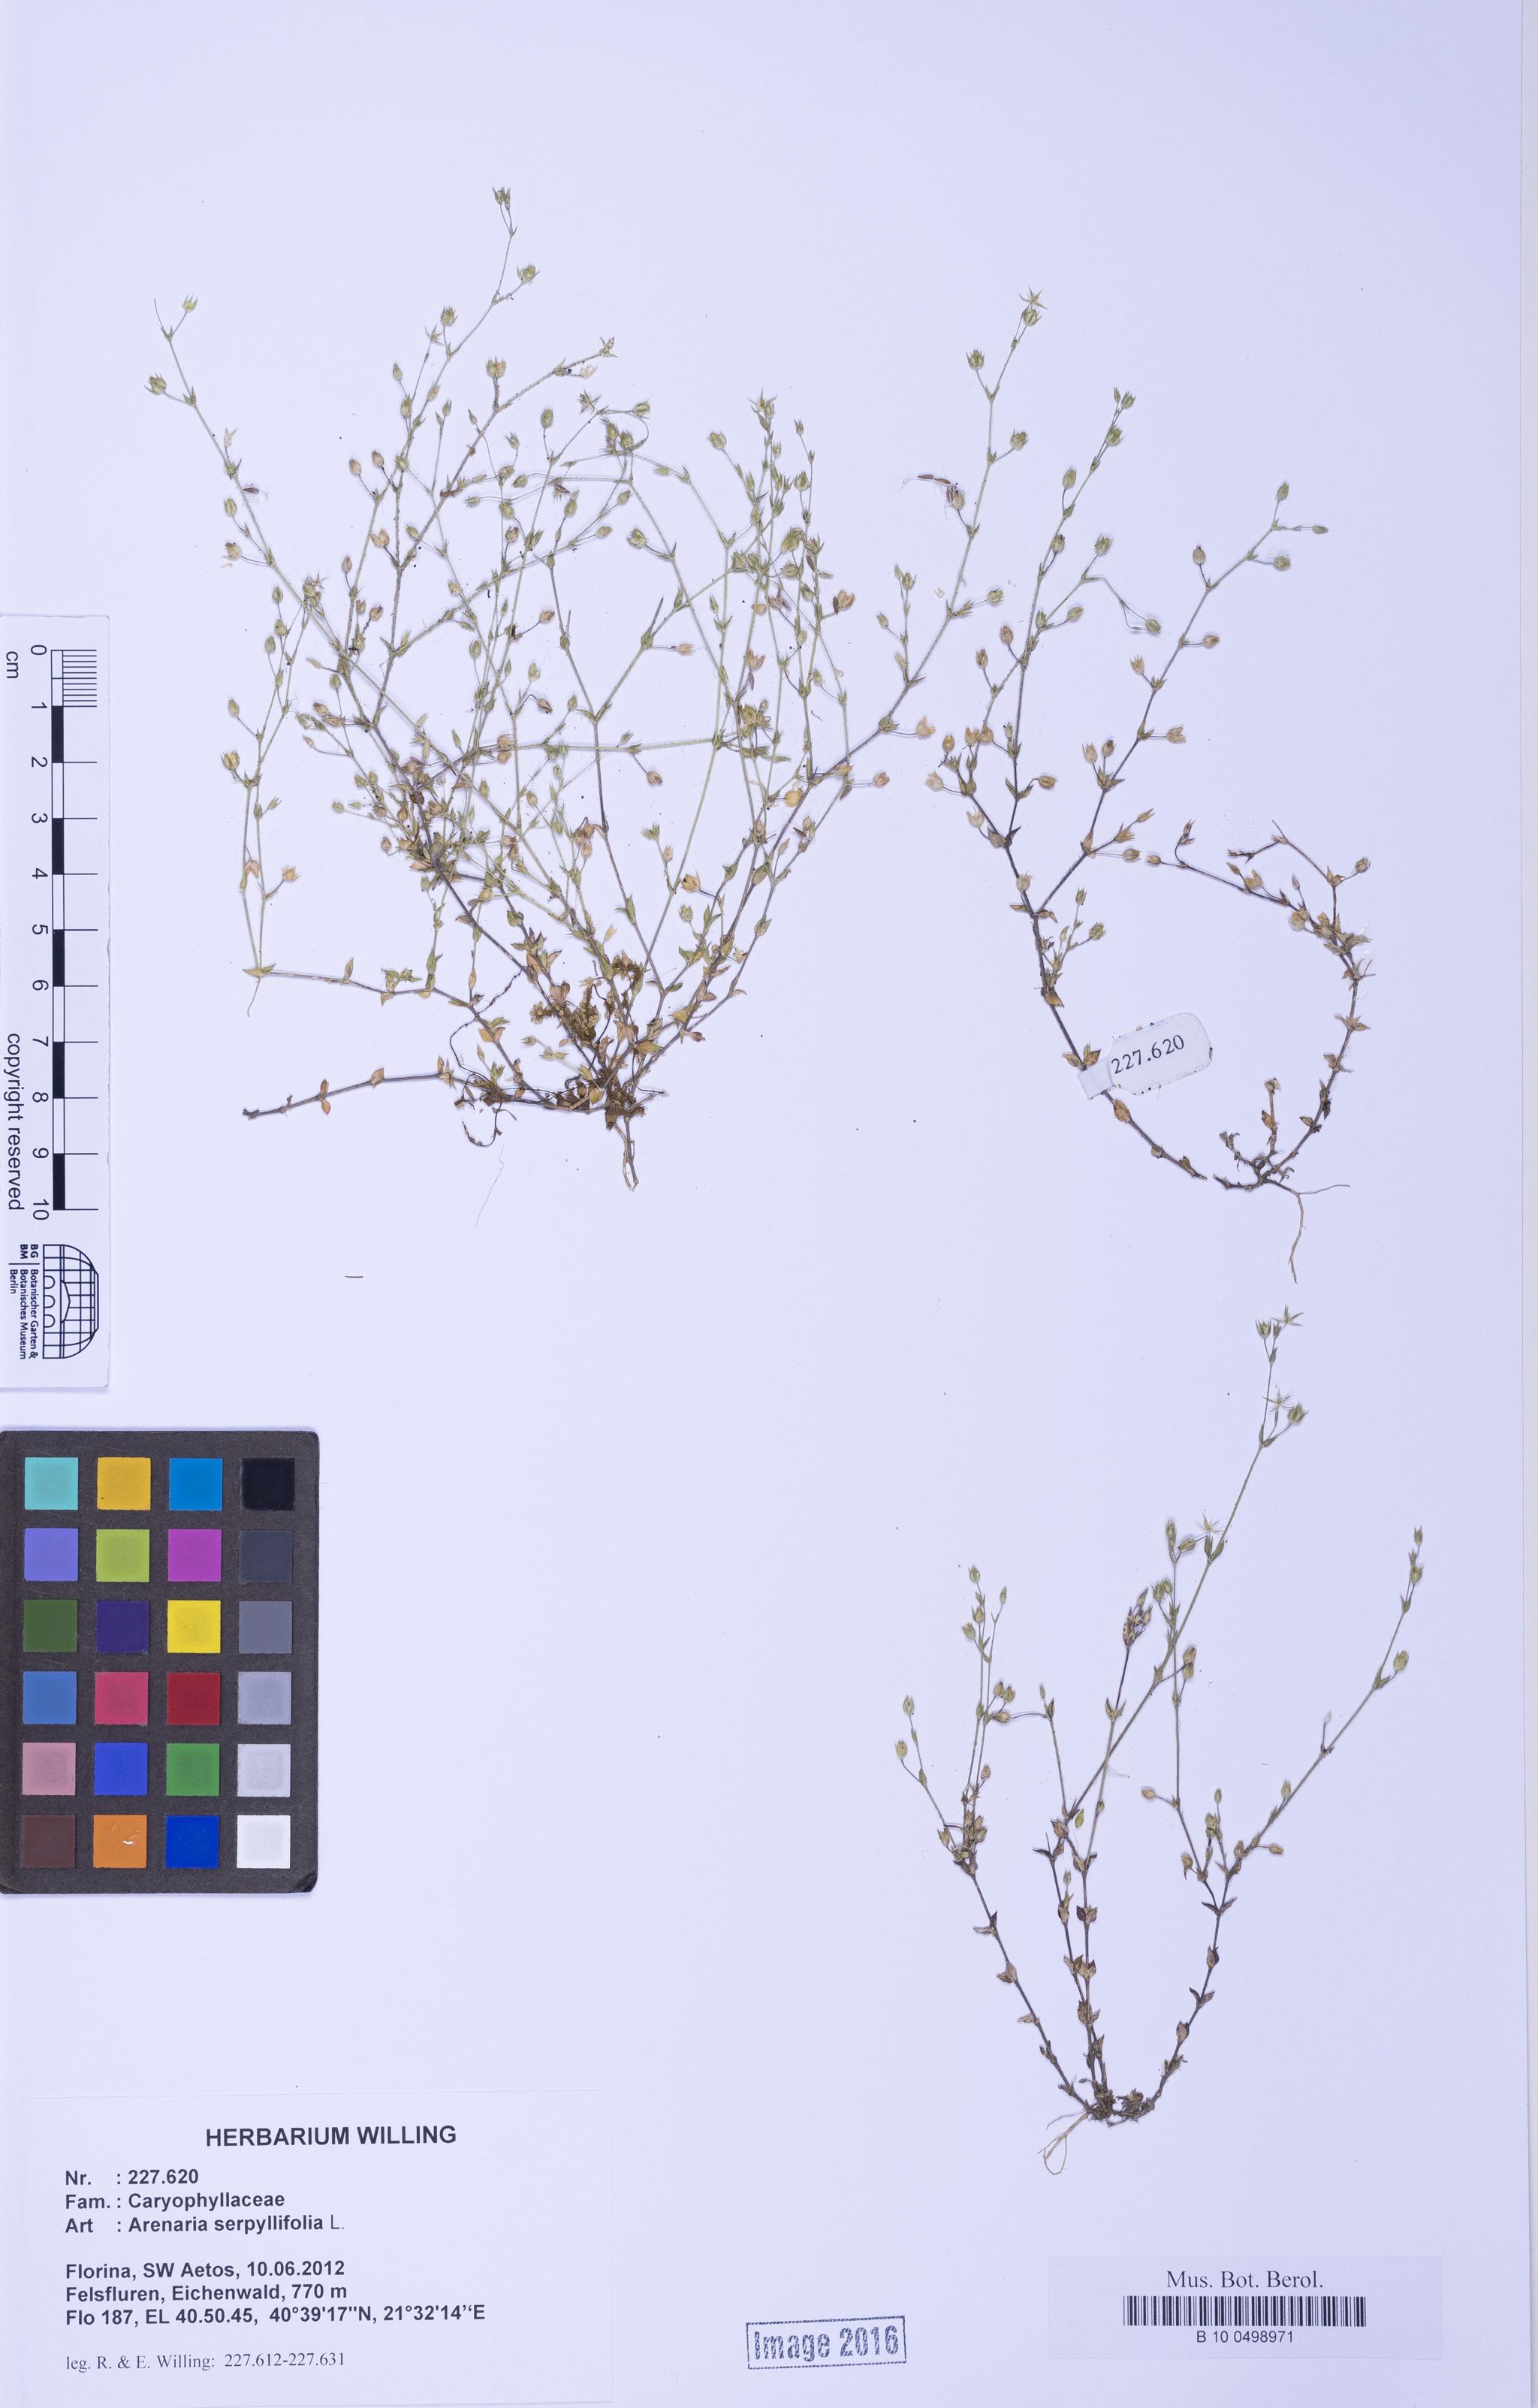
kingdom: Plantae
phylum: Tracheophyta
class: Magnoliopsida
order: Caryophyllales
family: Caryophyllaceae
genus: Arenaria
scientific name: Arenaria serpyllifolia
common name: Thyme-leaved sandwort
